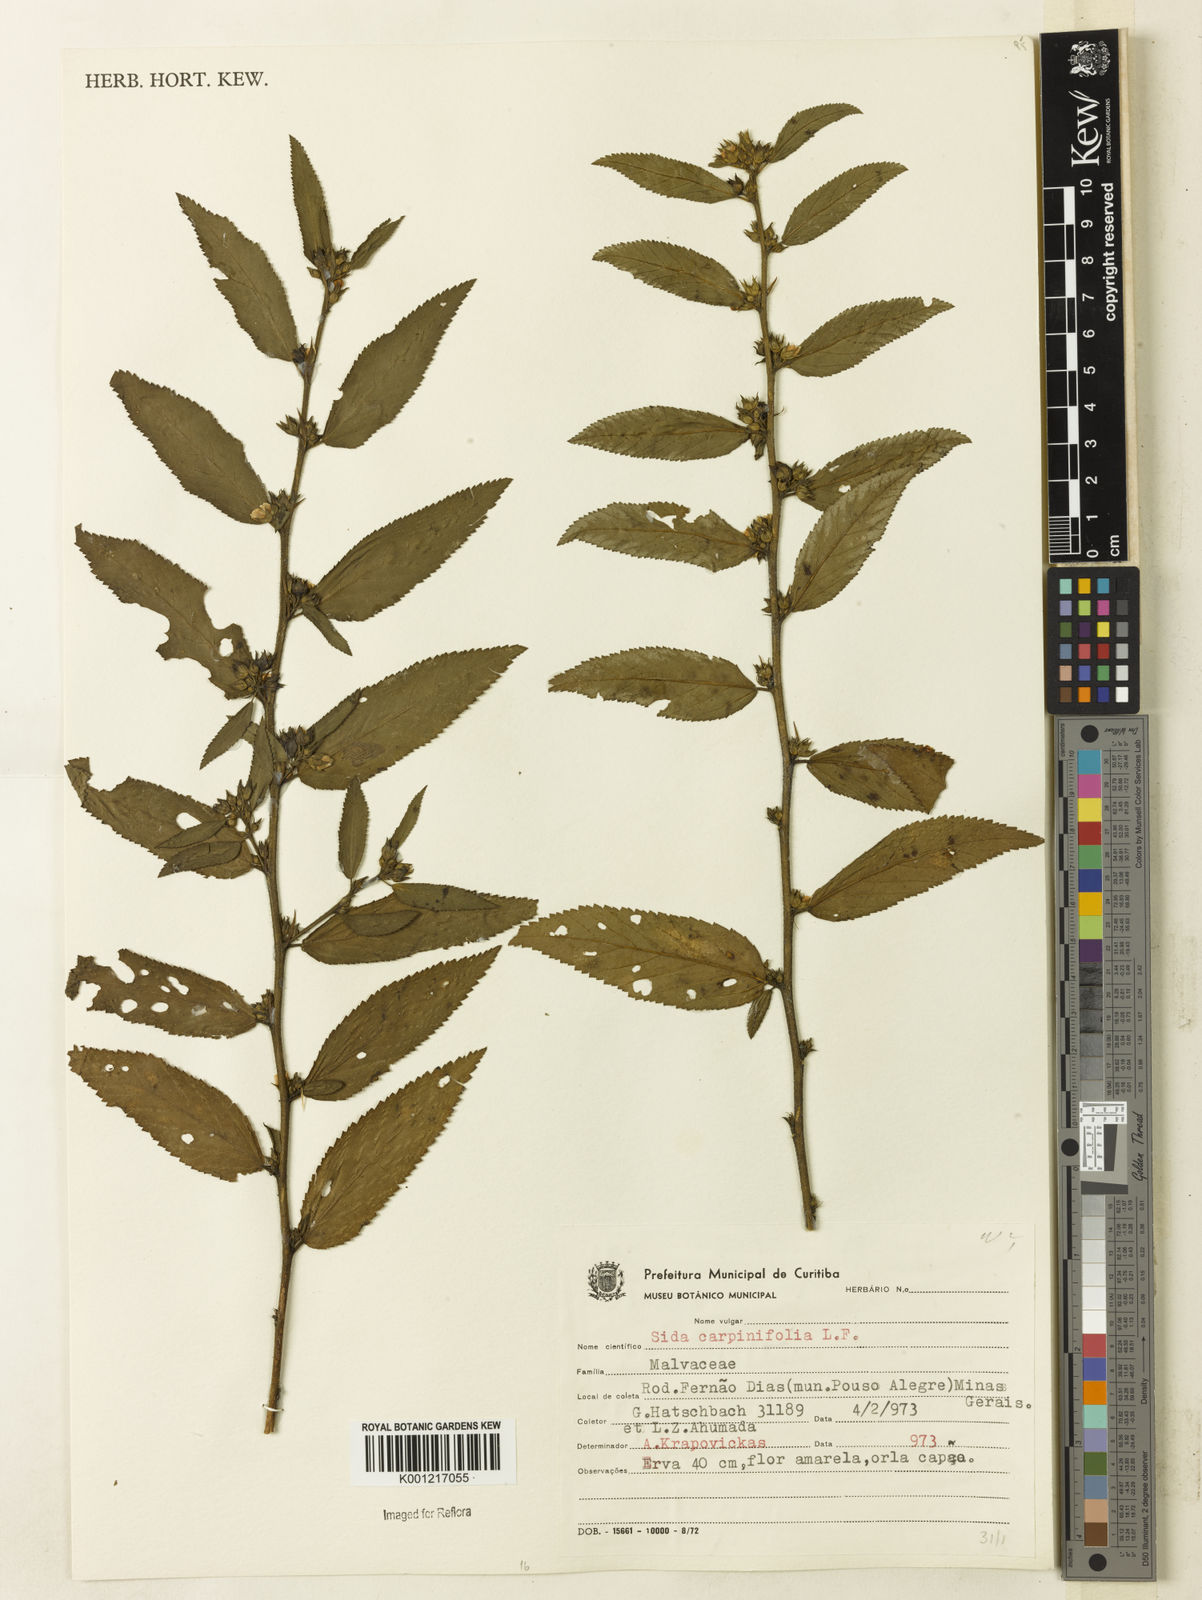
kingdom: Plantae
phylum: Tracheophyta
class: Magnoliopsida
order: Malvales
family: Malvaceae
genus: Sida
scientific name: Sida planicaulis
